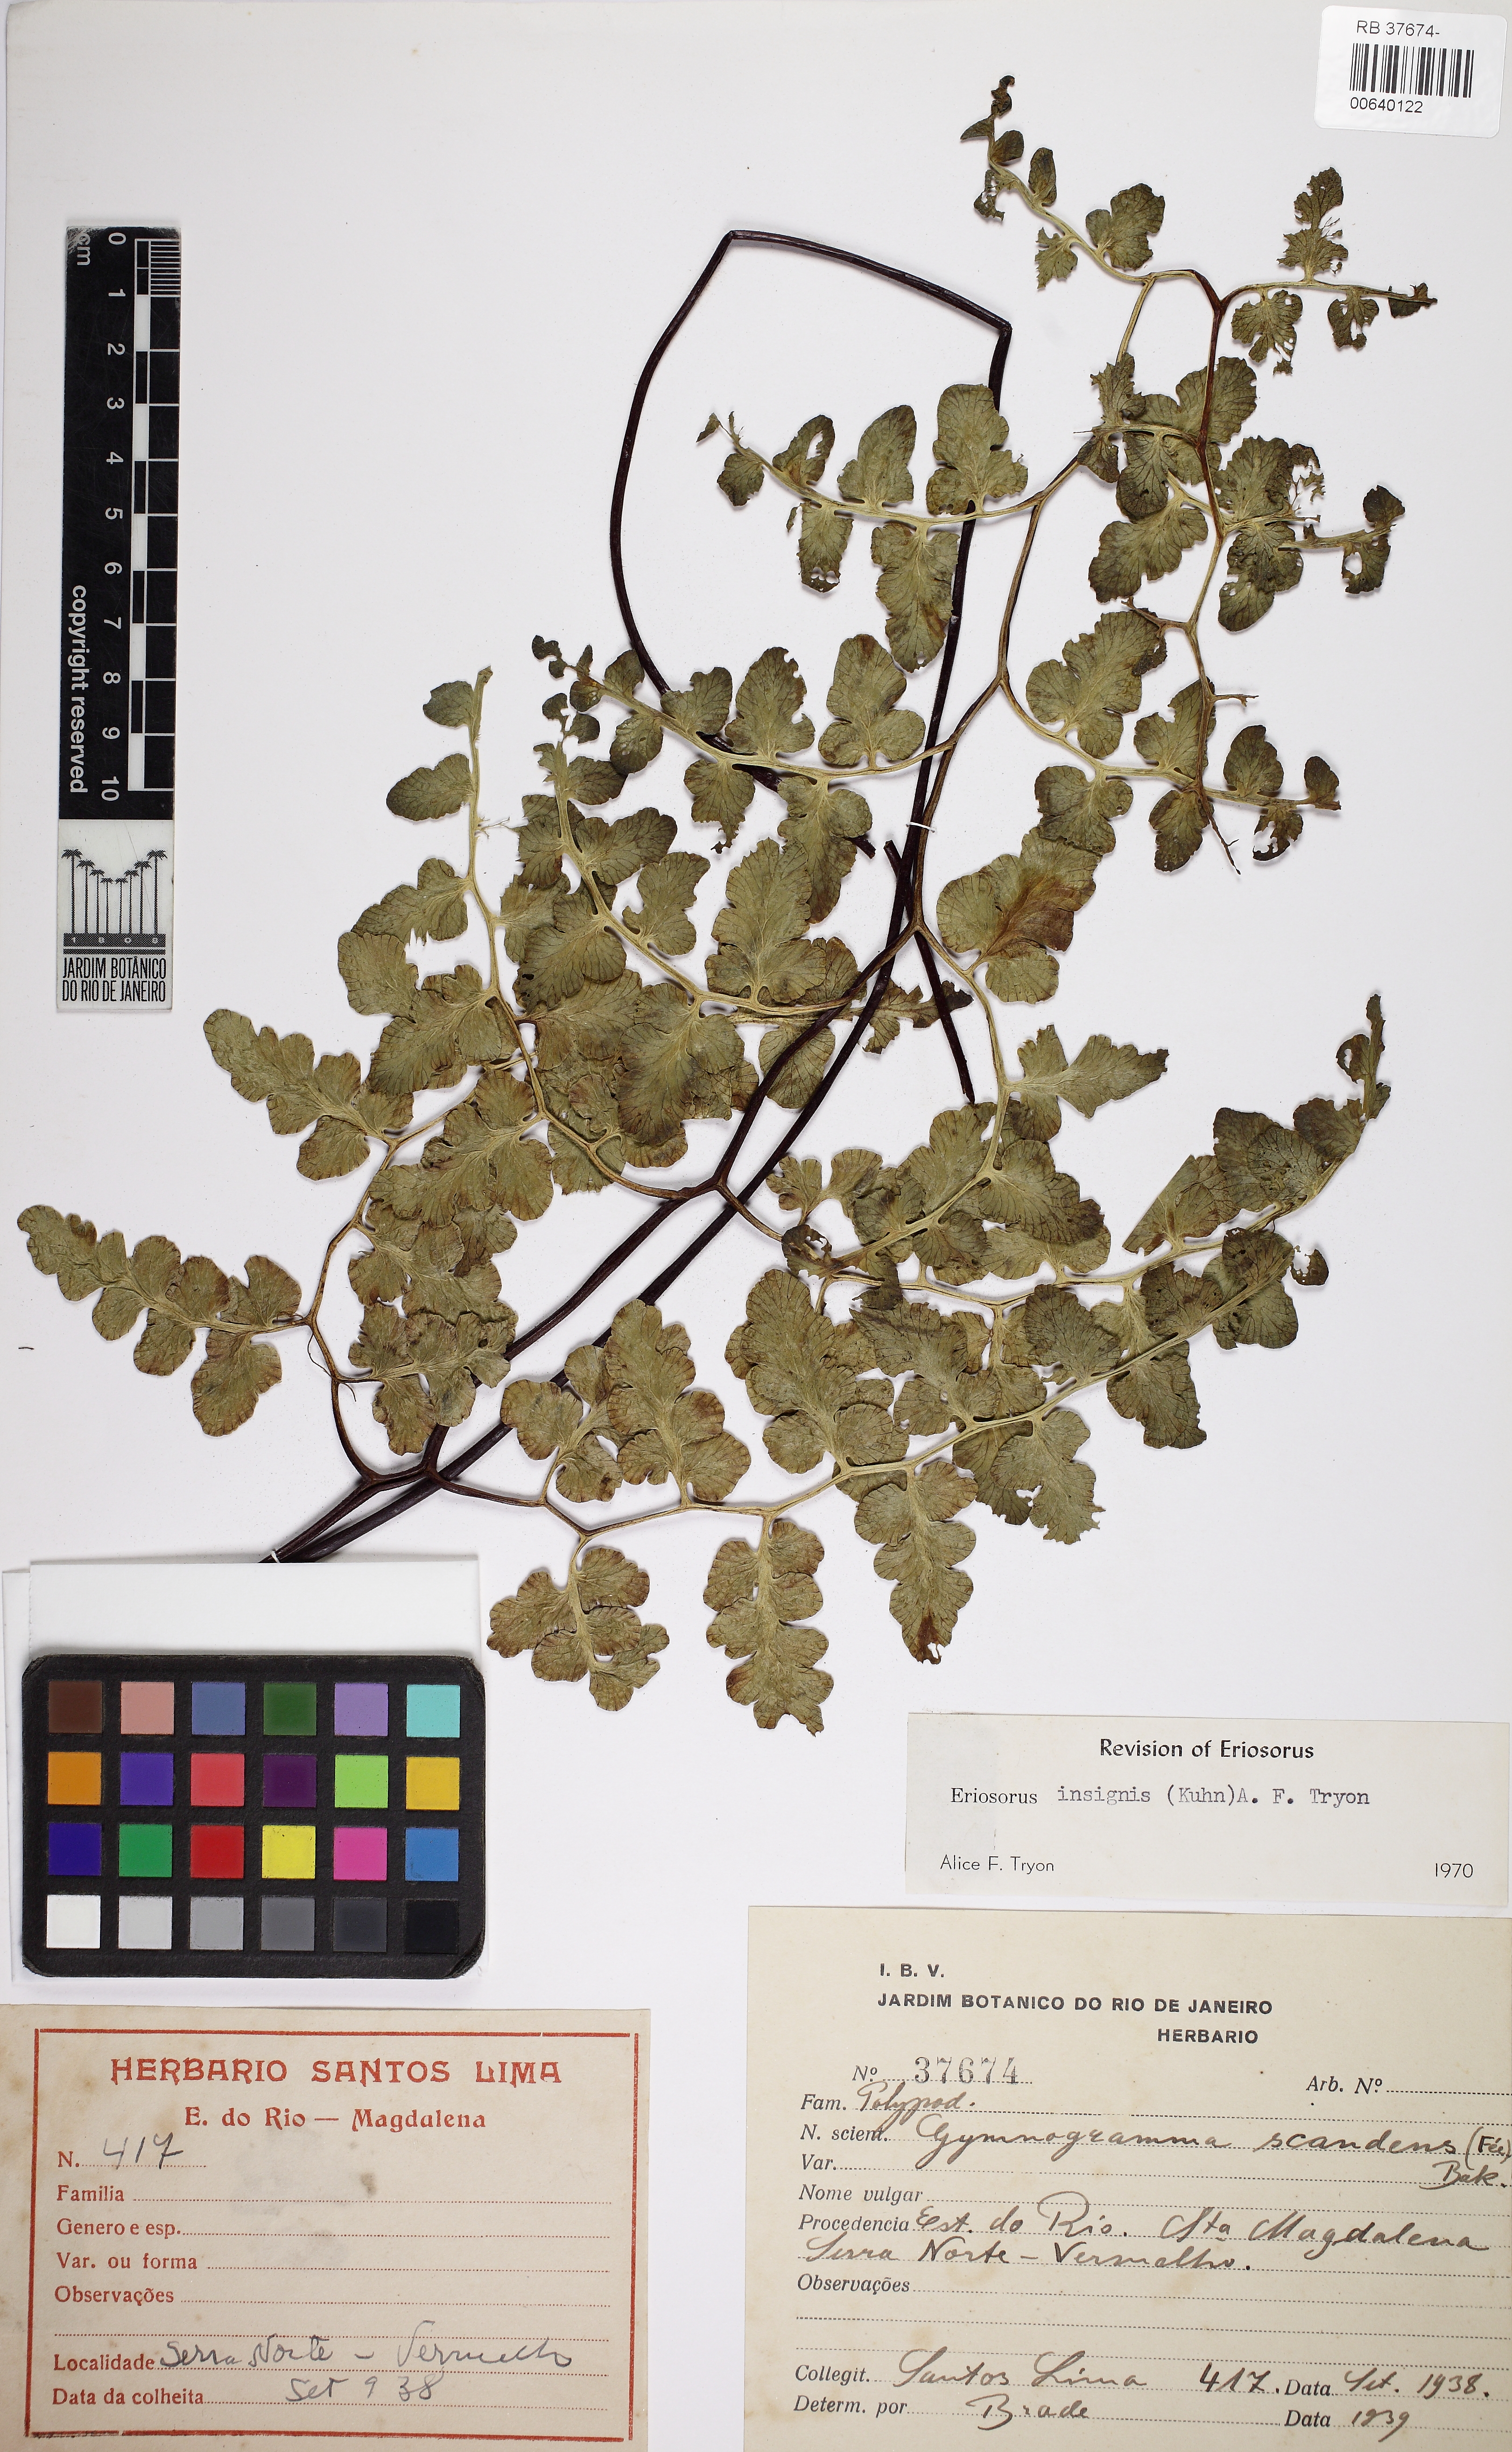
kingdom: Plantae
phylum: Tracheophyta
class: Polypodiopsida
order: Polypodiales
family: Pteridaceae
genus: Jamesonia
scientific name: Jamesonia insignis
